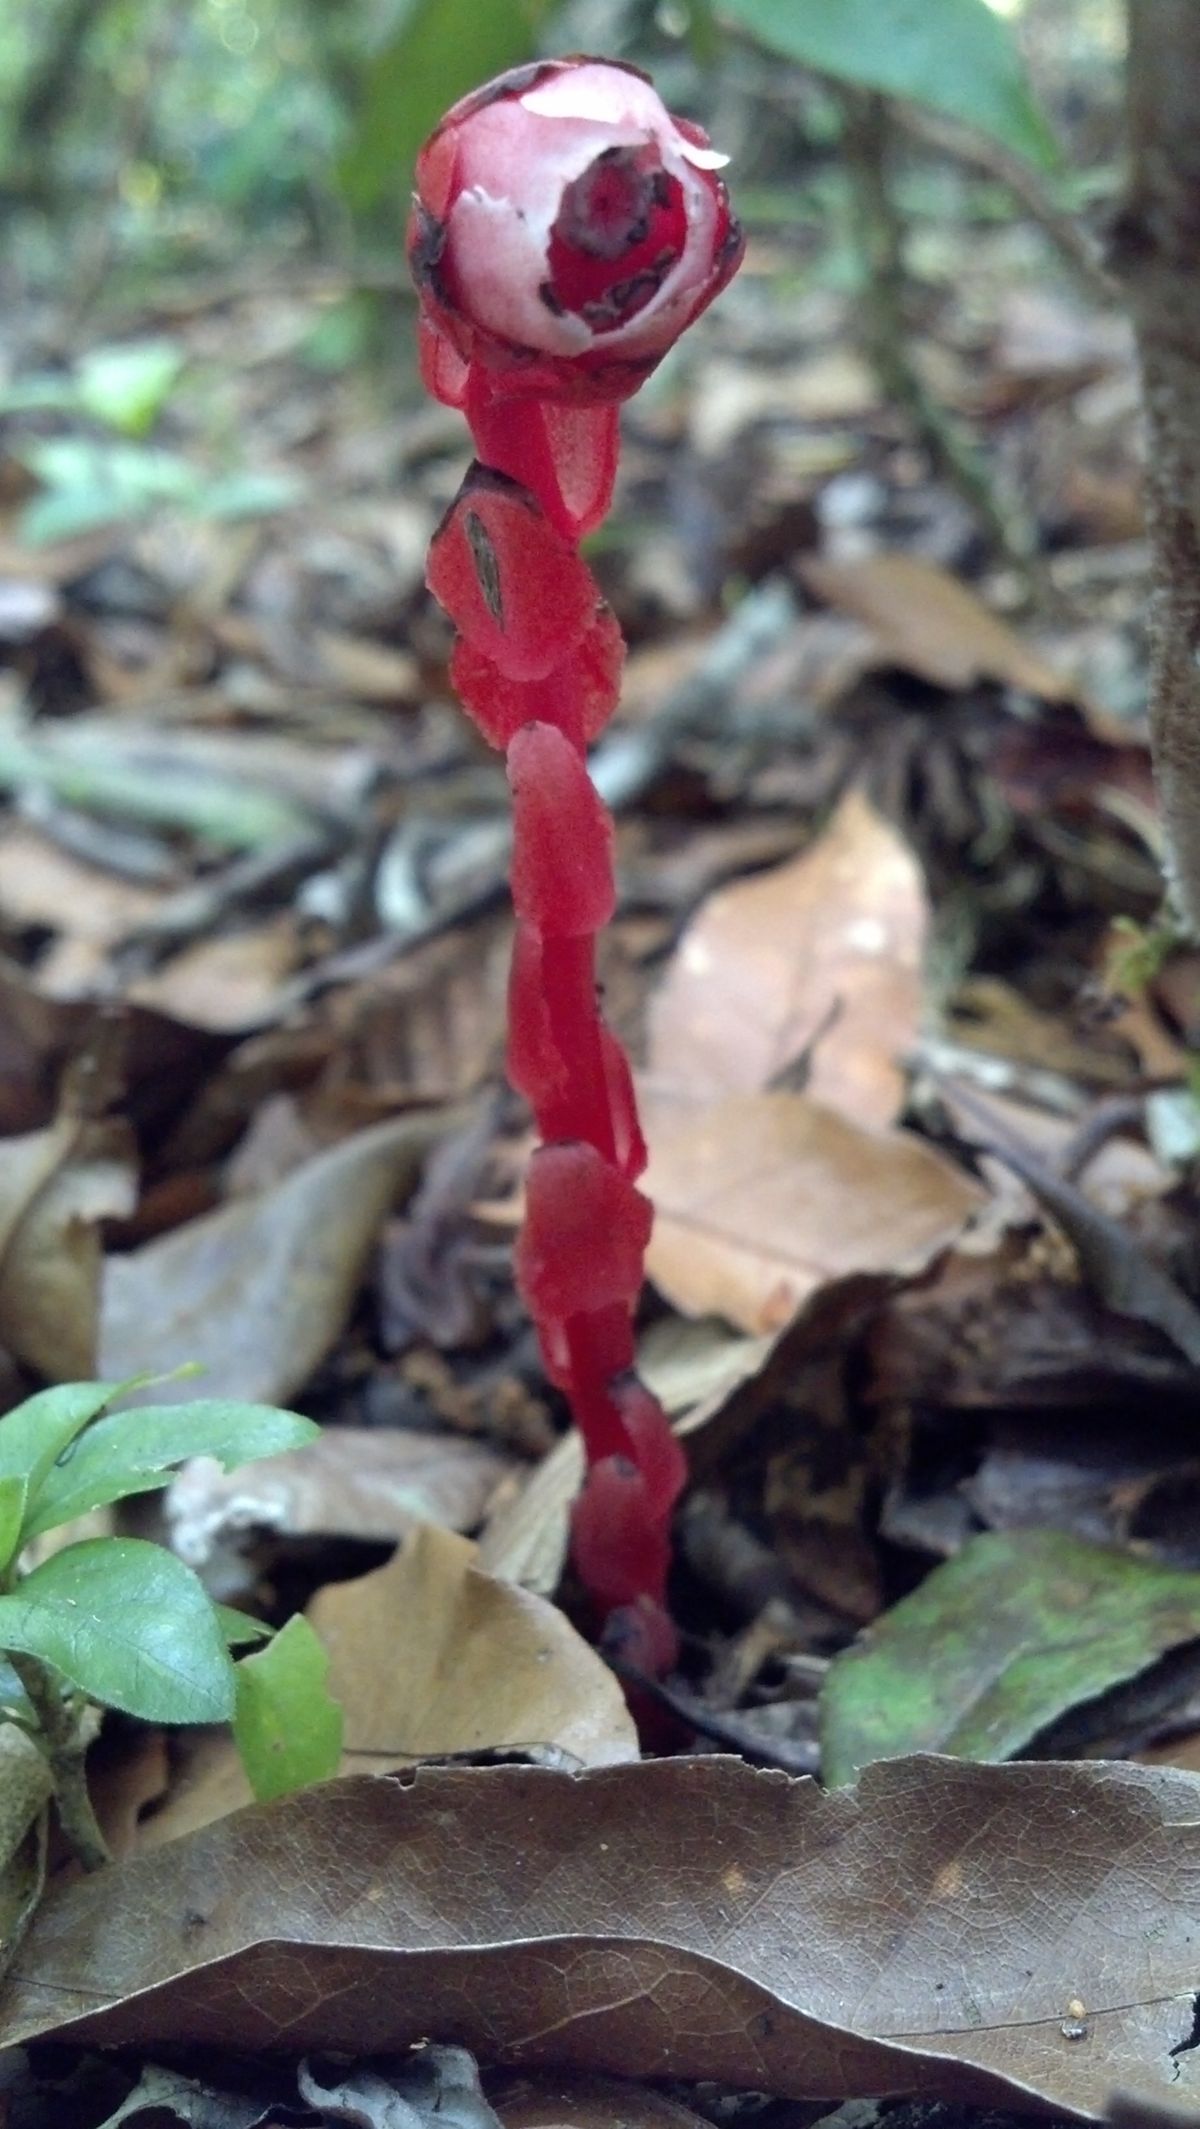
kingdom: Plantae
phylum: Tracheophyta
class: Magnoliopsida
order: Ericales
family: Ericaceae
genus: Monotropa
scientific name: Monotropa uniflora
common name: Convulsion root
